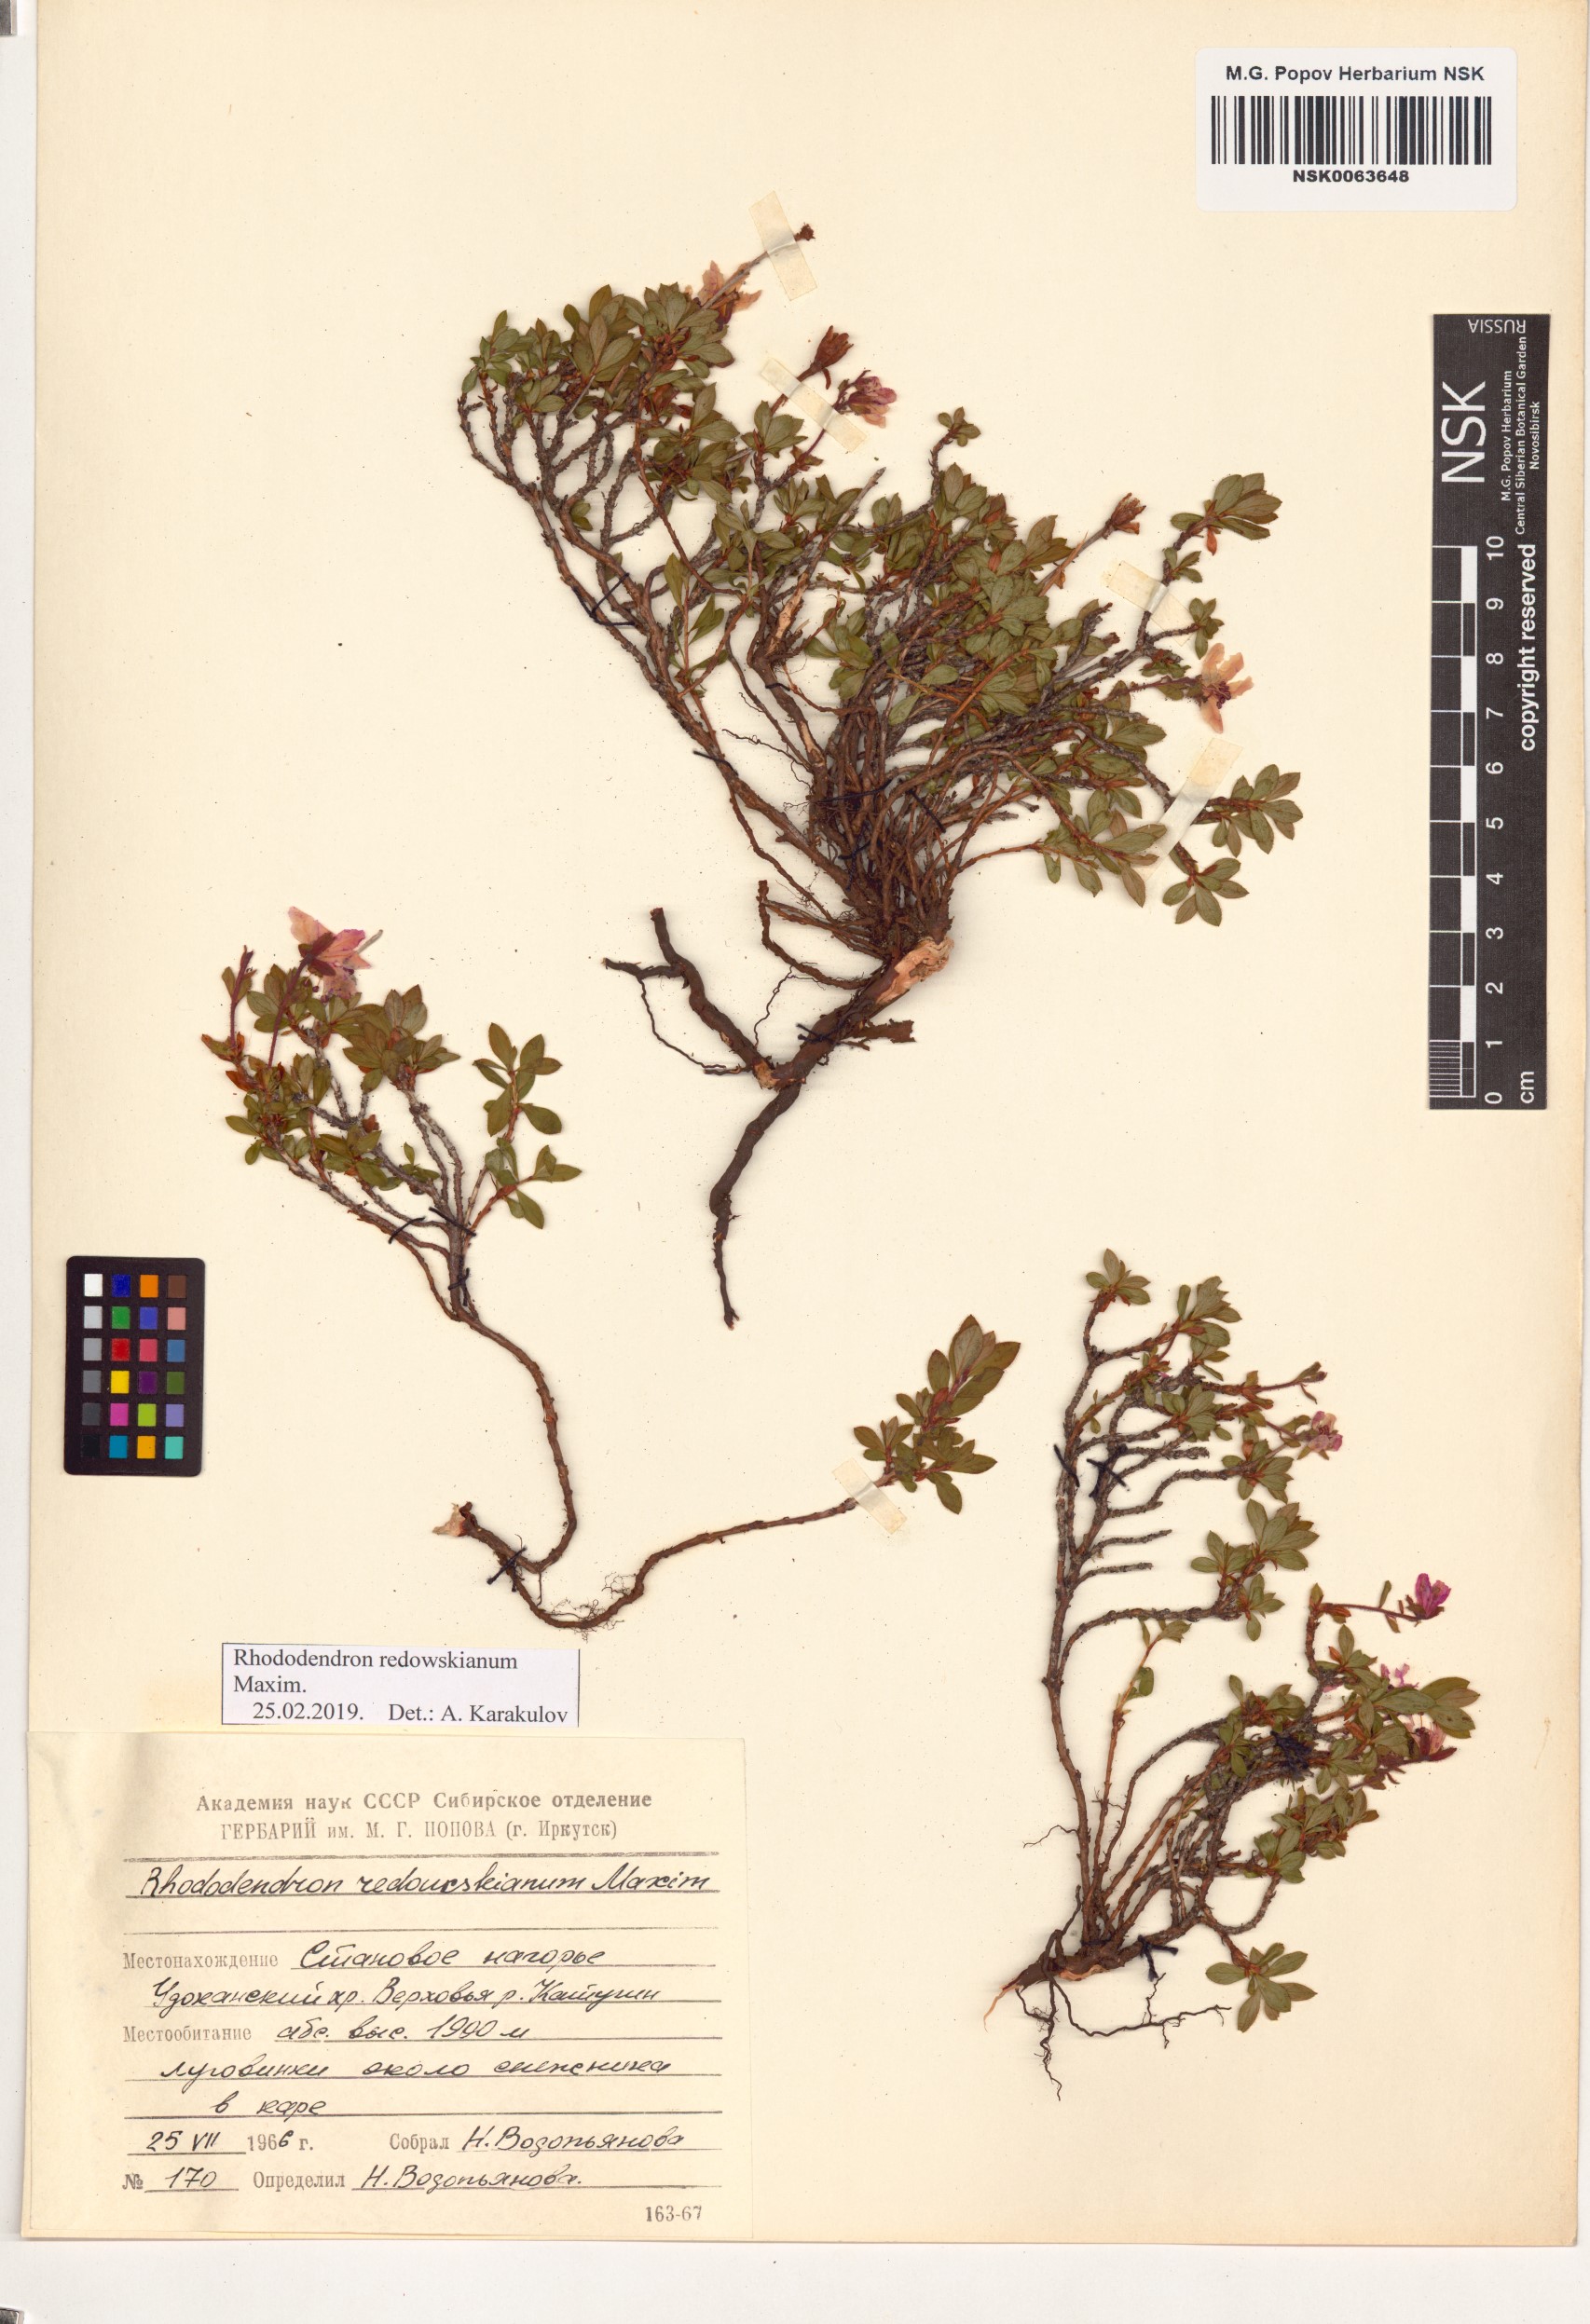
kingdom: Plantae
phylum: Tracheophyta
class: Magnoliopsida
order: Ericales
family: Ericaceae
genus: Rhododendron
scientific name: Rhododendron redowskianum
